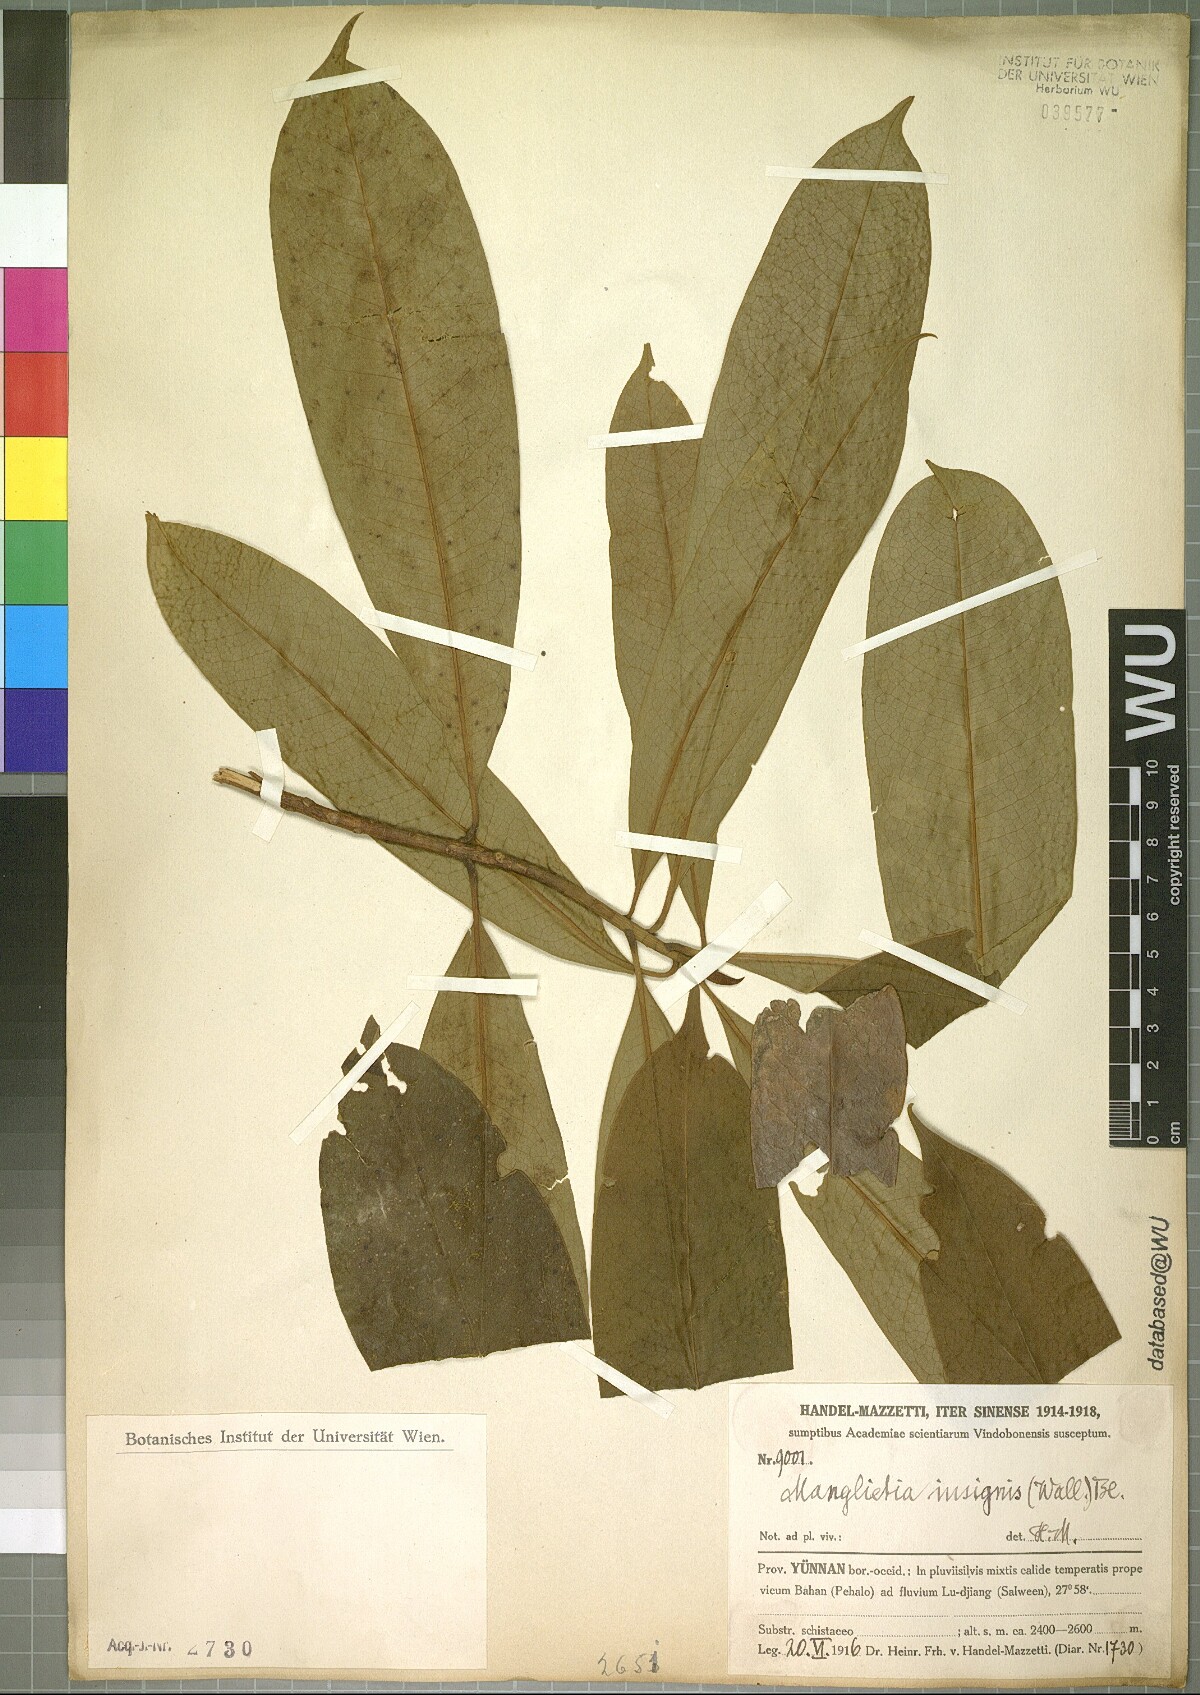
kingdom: Plantae
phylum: Tracheophyta
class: Magnoliopsida
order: Magnoliales
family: Magnoliaceae
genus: Magnolia
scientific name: Magnolia insignis
